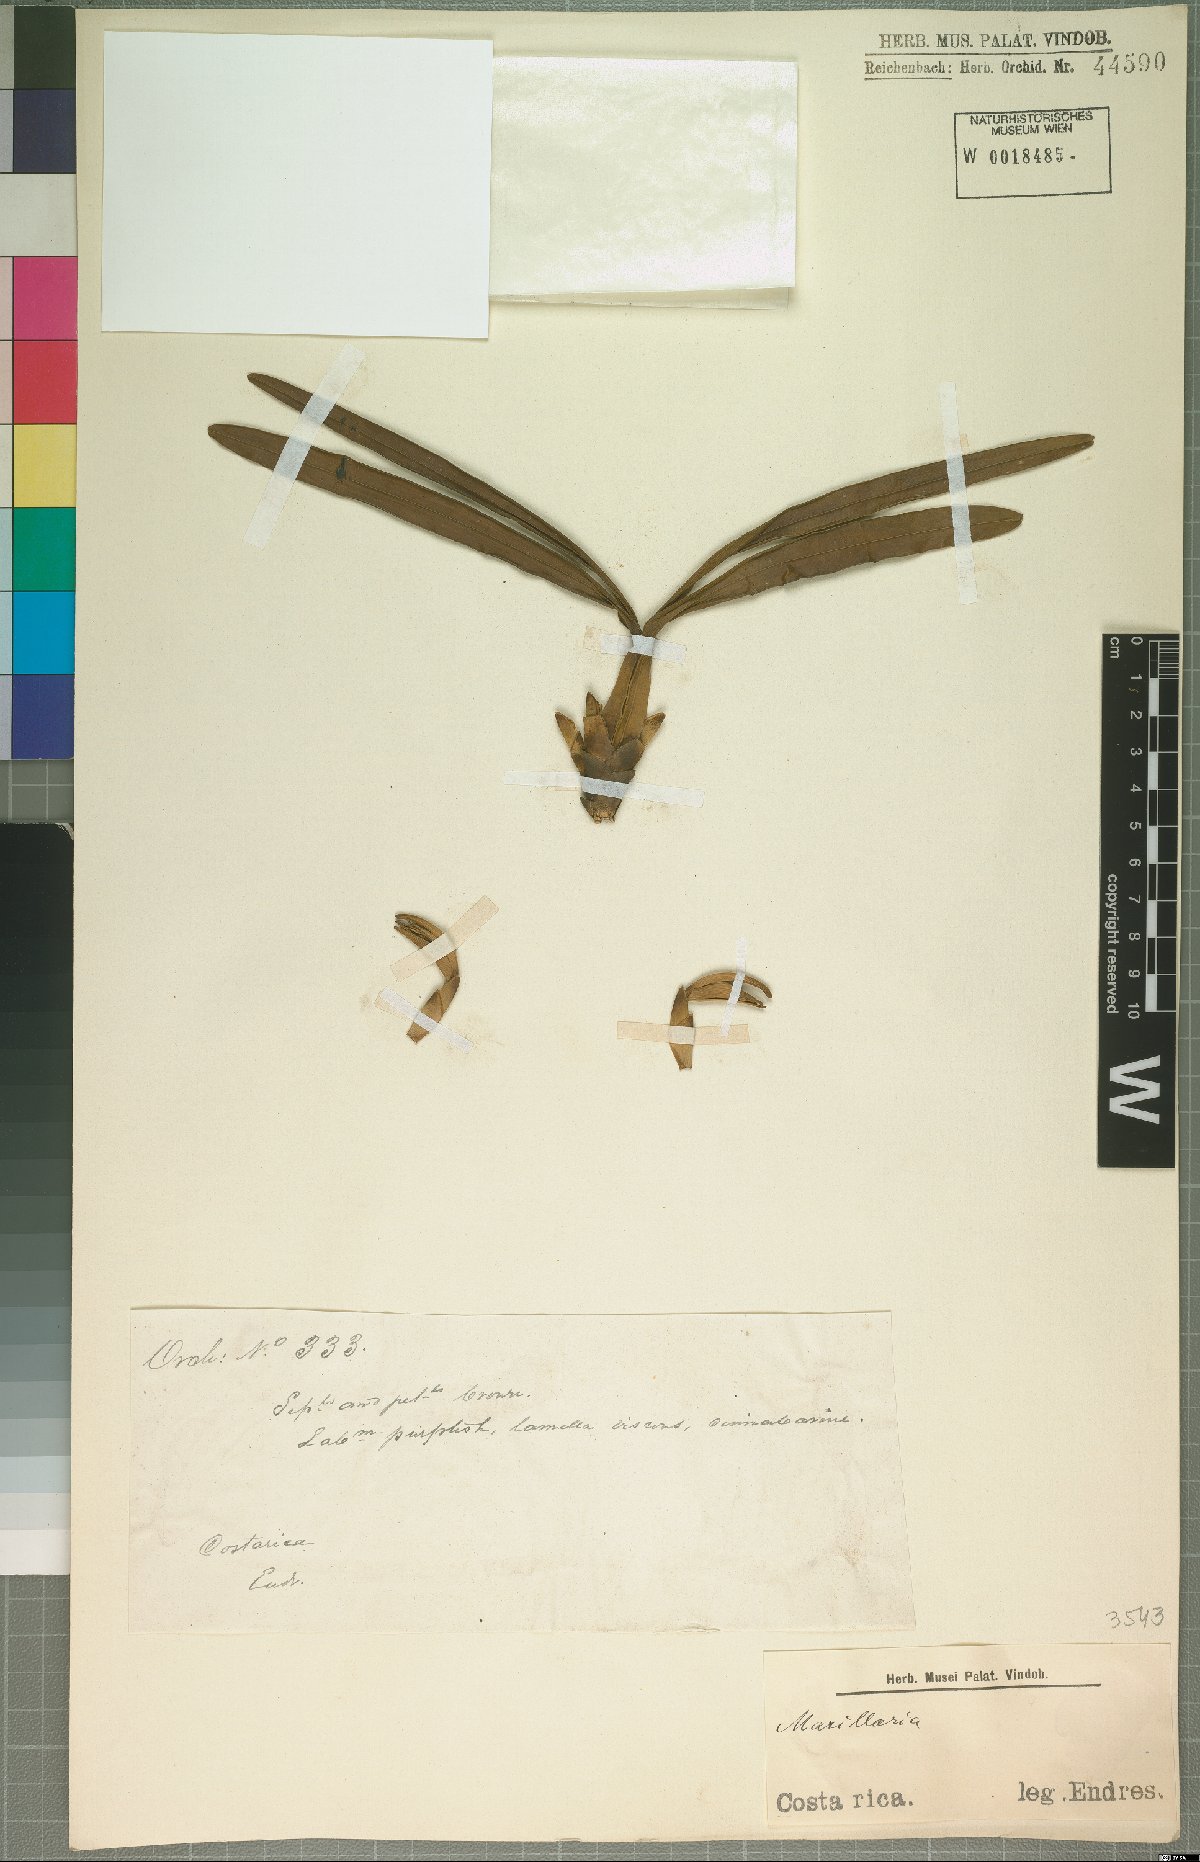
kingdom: Plantae
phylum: Tracheophyta
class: Liliopsida
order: Asparagales
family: Orchidaceae
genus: Maxillaria
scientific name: Maxillaria
